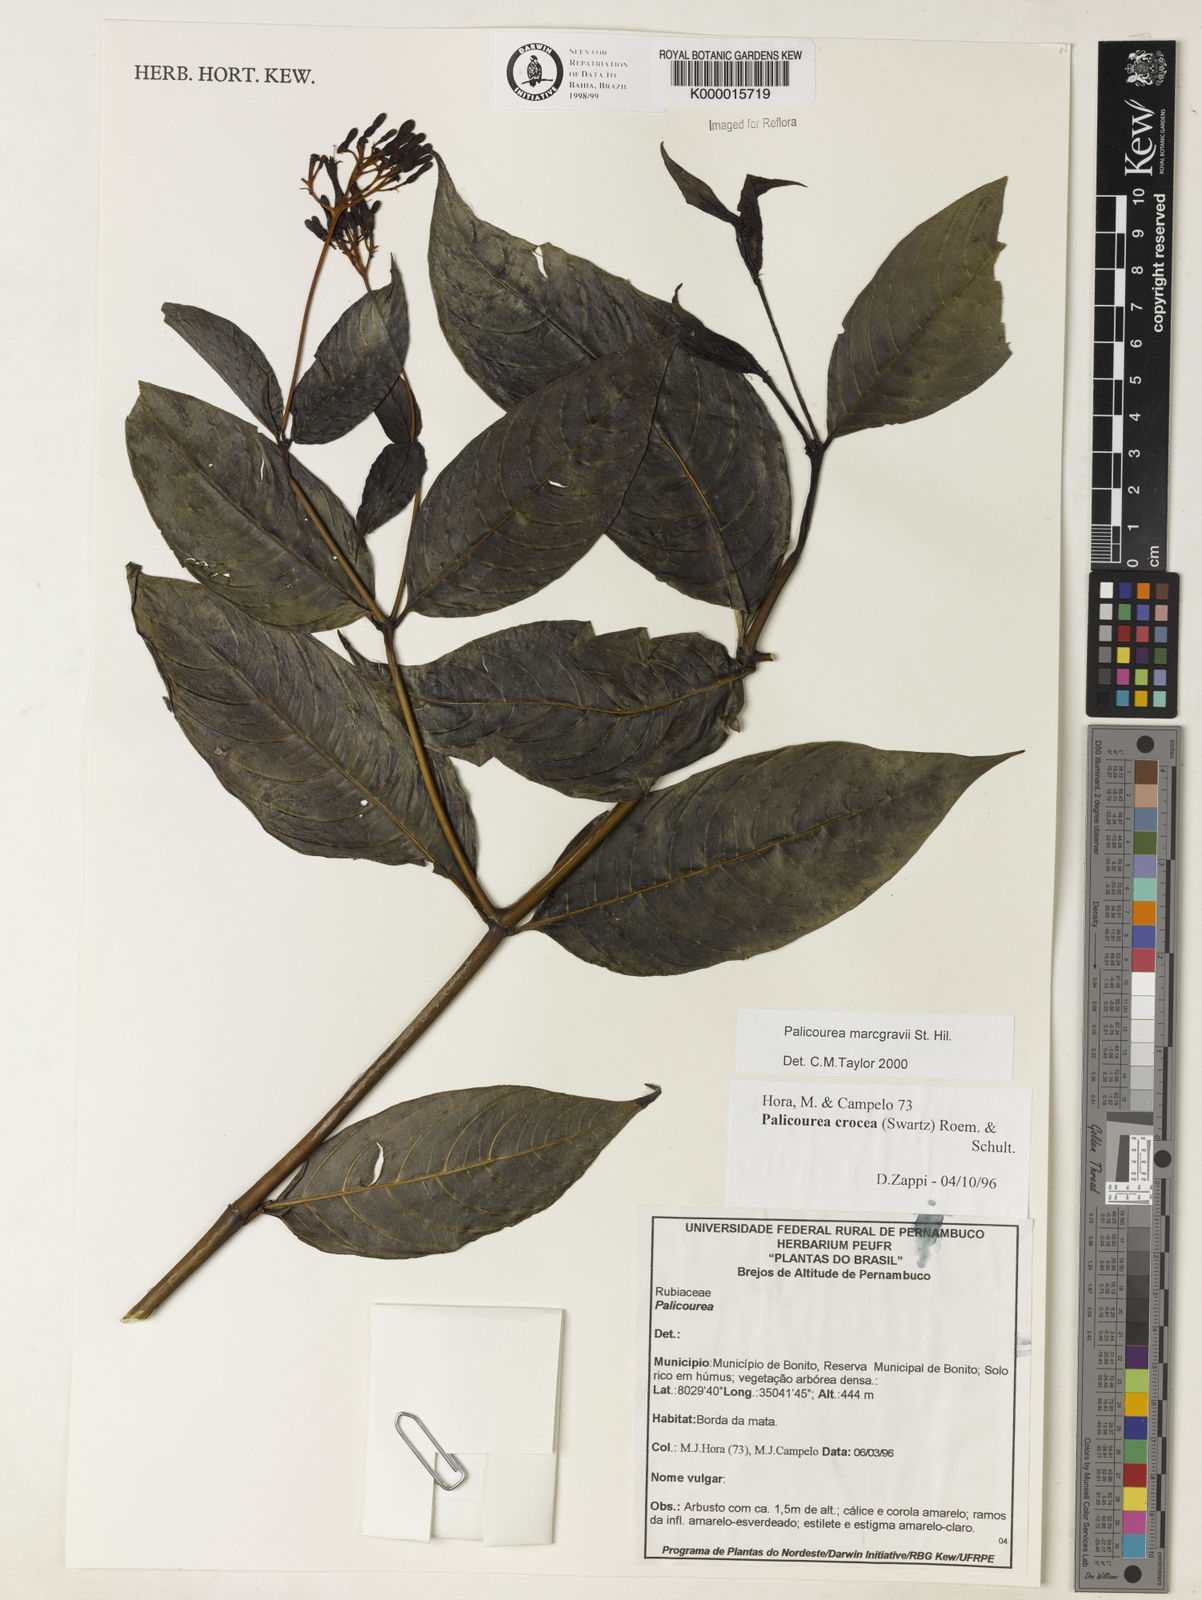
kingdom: Plantae
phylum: Tracheophyta
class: Magnoliopsida
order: Gentianales
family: Rubiaceae
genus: Palicourea
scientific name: Palicourea marcgravii
